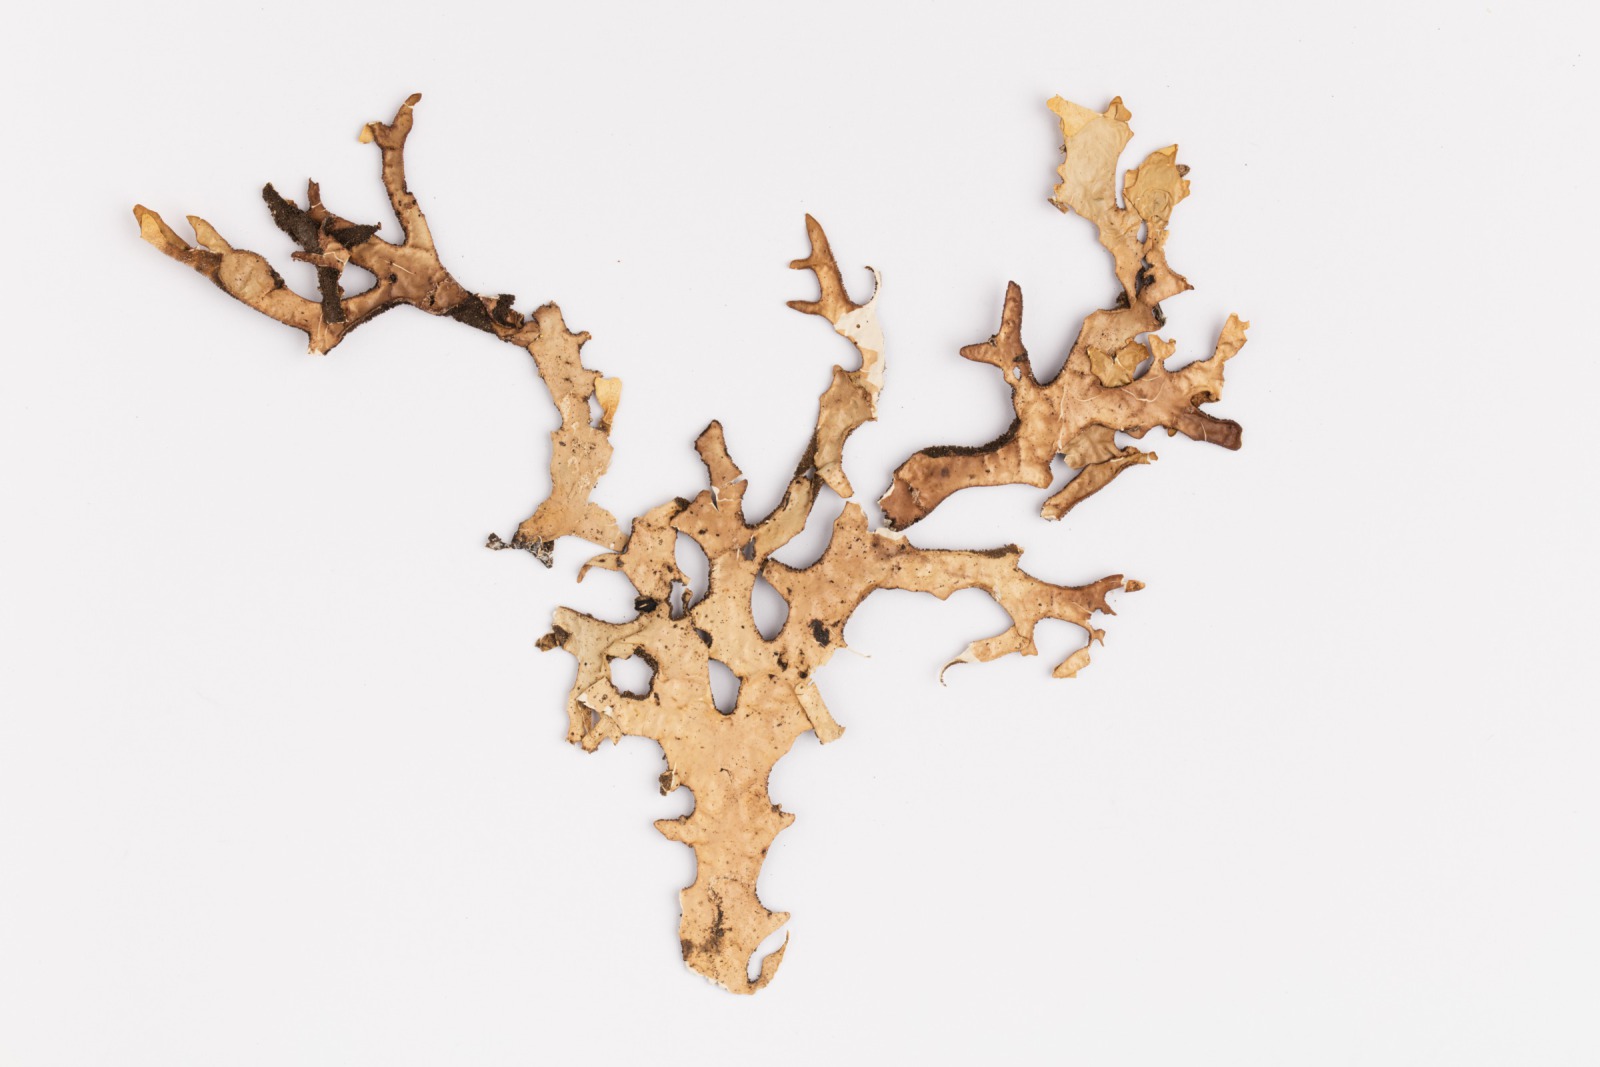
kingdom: Fungi
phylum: Ascomycota
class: Lecanoromycetes
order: Peltigerales
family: Lobariaceae
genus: Pseudocyphellaria
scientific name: Pseudocyphellaria carpoloma
